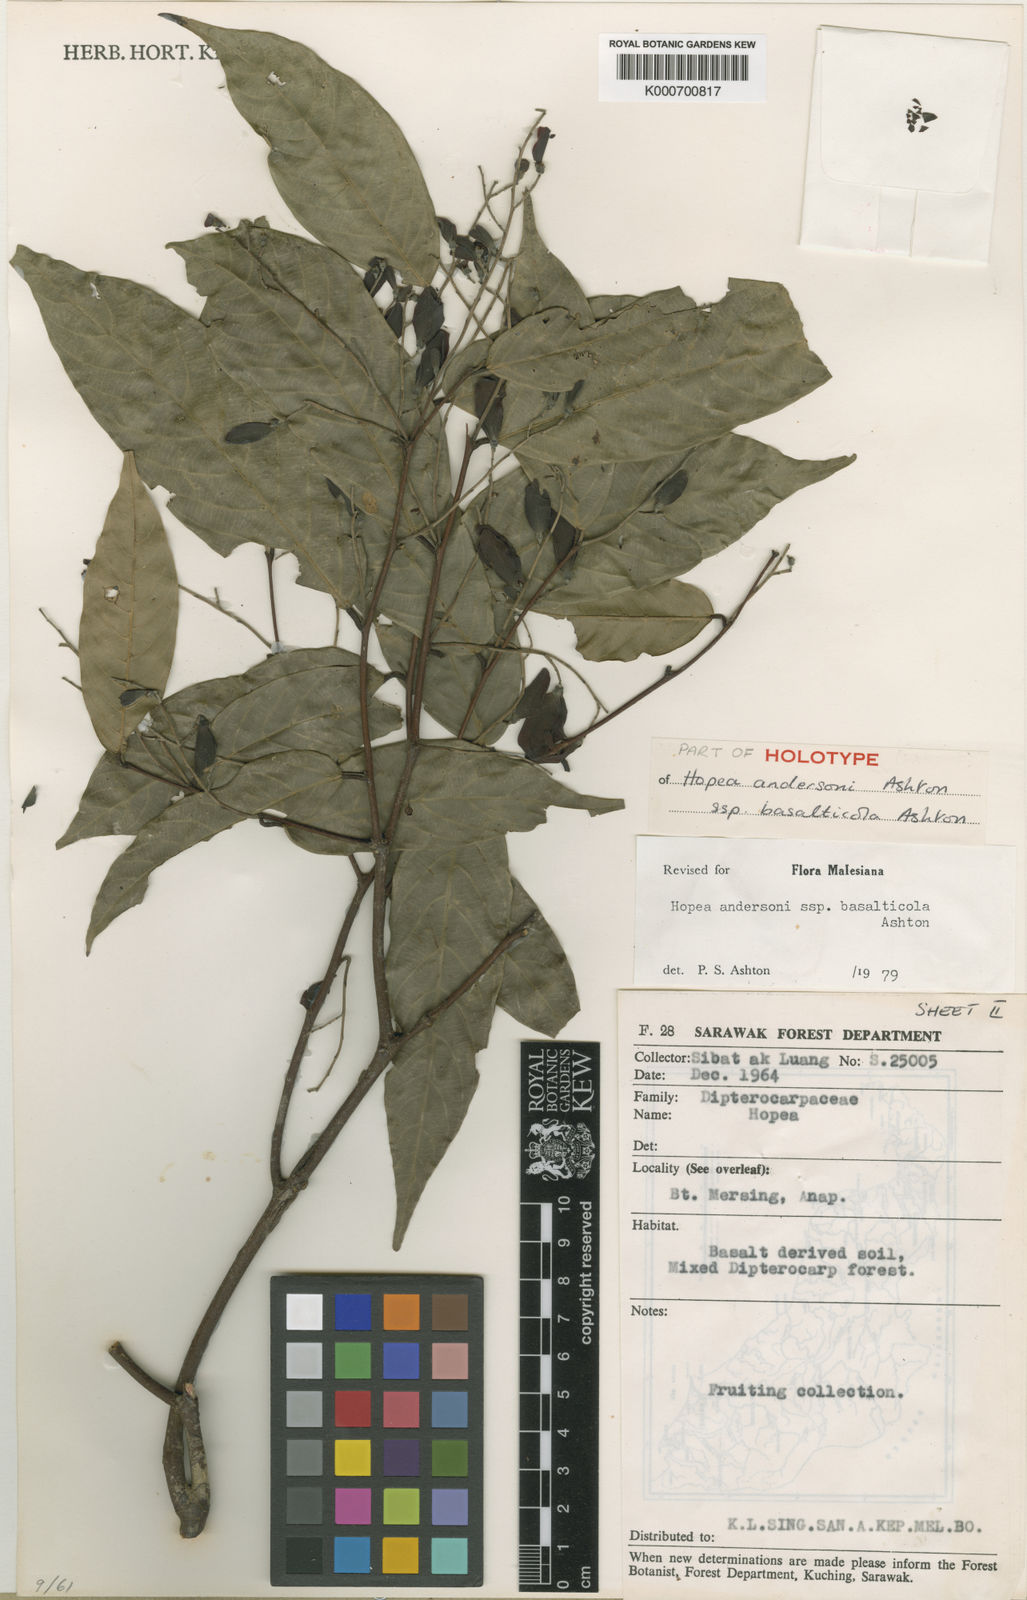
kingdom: Plantae
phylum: Tracheophyta
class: Magnoliopsida
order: Malvales
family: Dipterocarpaceae
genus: Hopea
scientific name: Hopea andersonii
